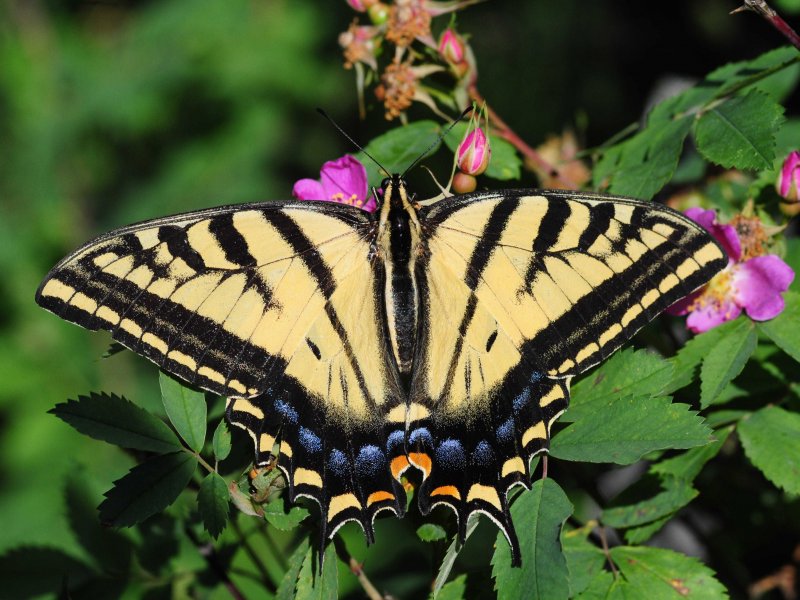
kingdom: Animalia
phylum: Arthropoda
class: Insecta
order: Lepidoptera
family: Papilionidae
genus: Papilio
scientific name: Papilio multicaudata
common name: Two-tailed Swallowtail
